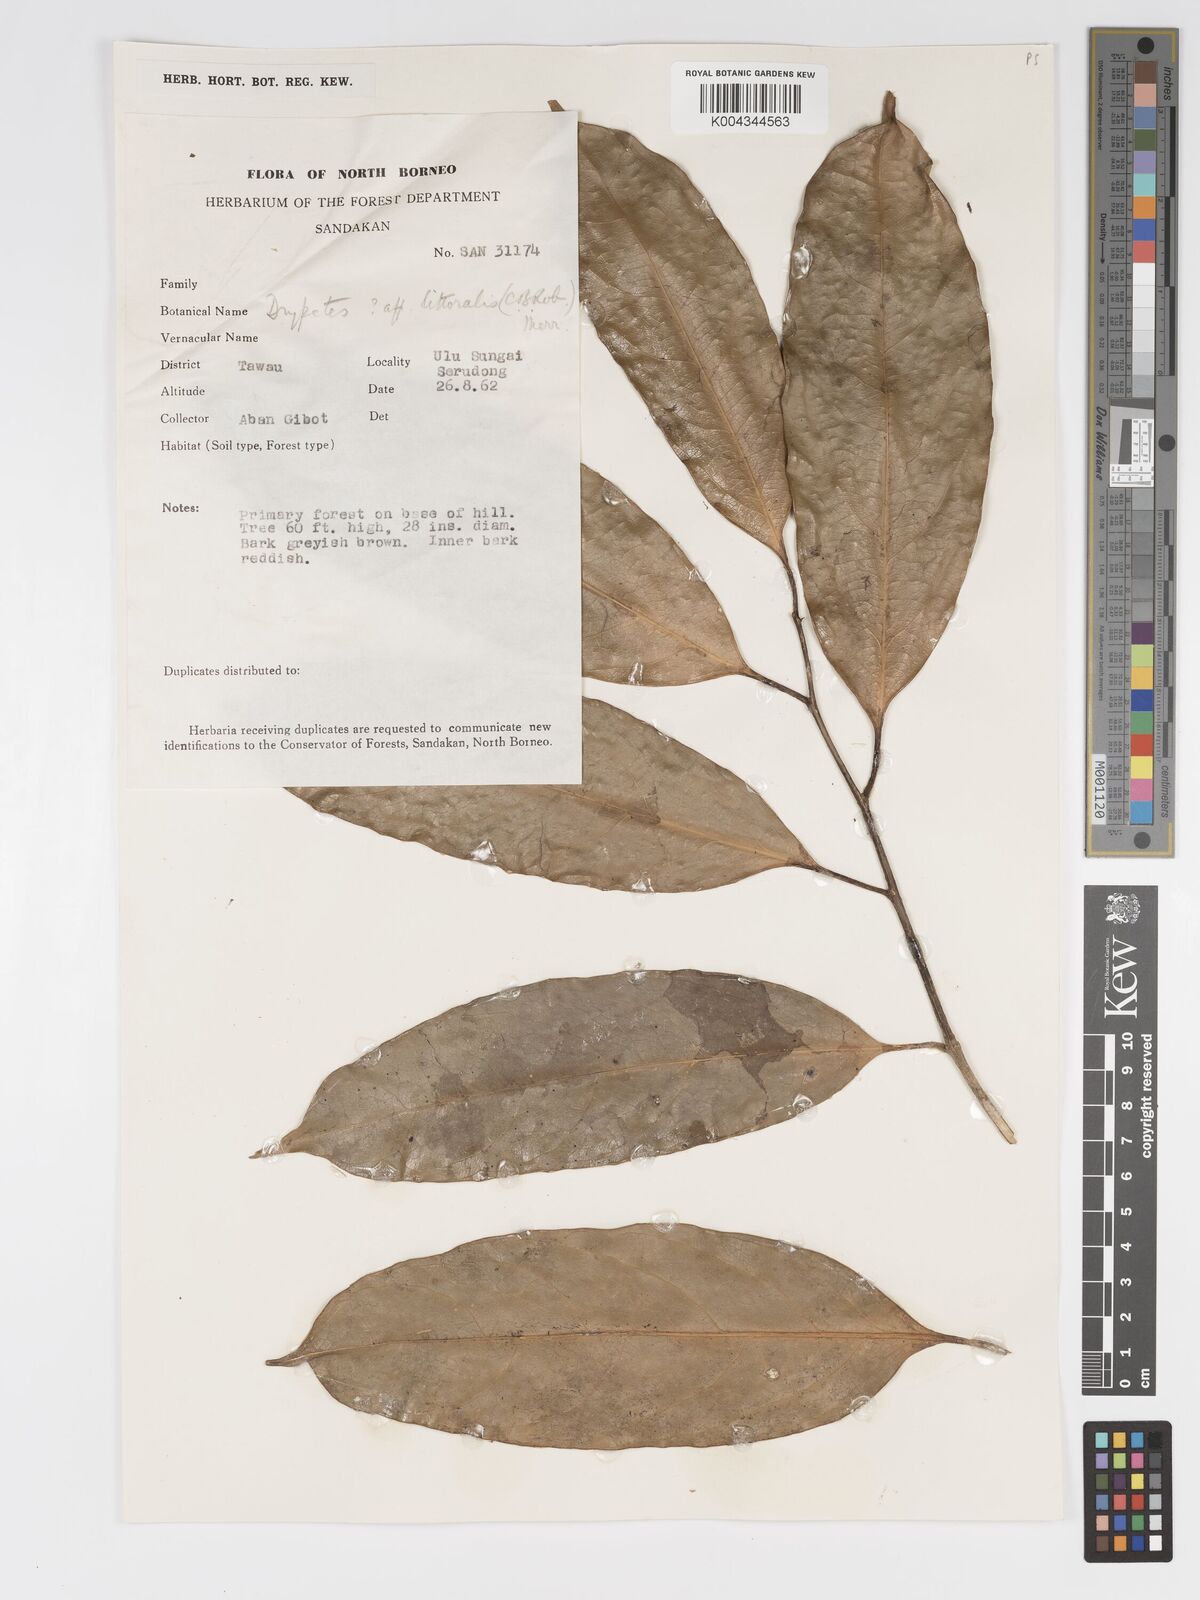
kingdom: Plantae
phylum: Tracheophyta
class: Magnoliopsida
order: Malpighiales
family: Putranjivaceae
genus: Drypetes
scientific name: Drypetes neglecta
